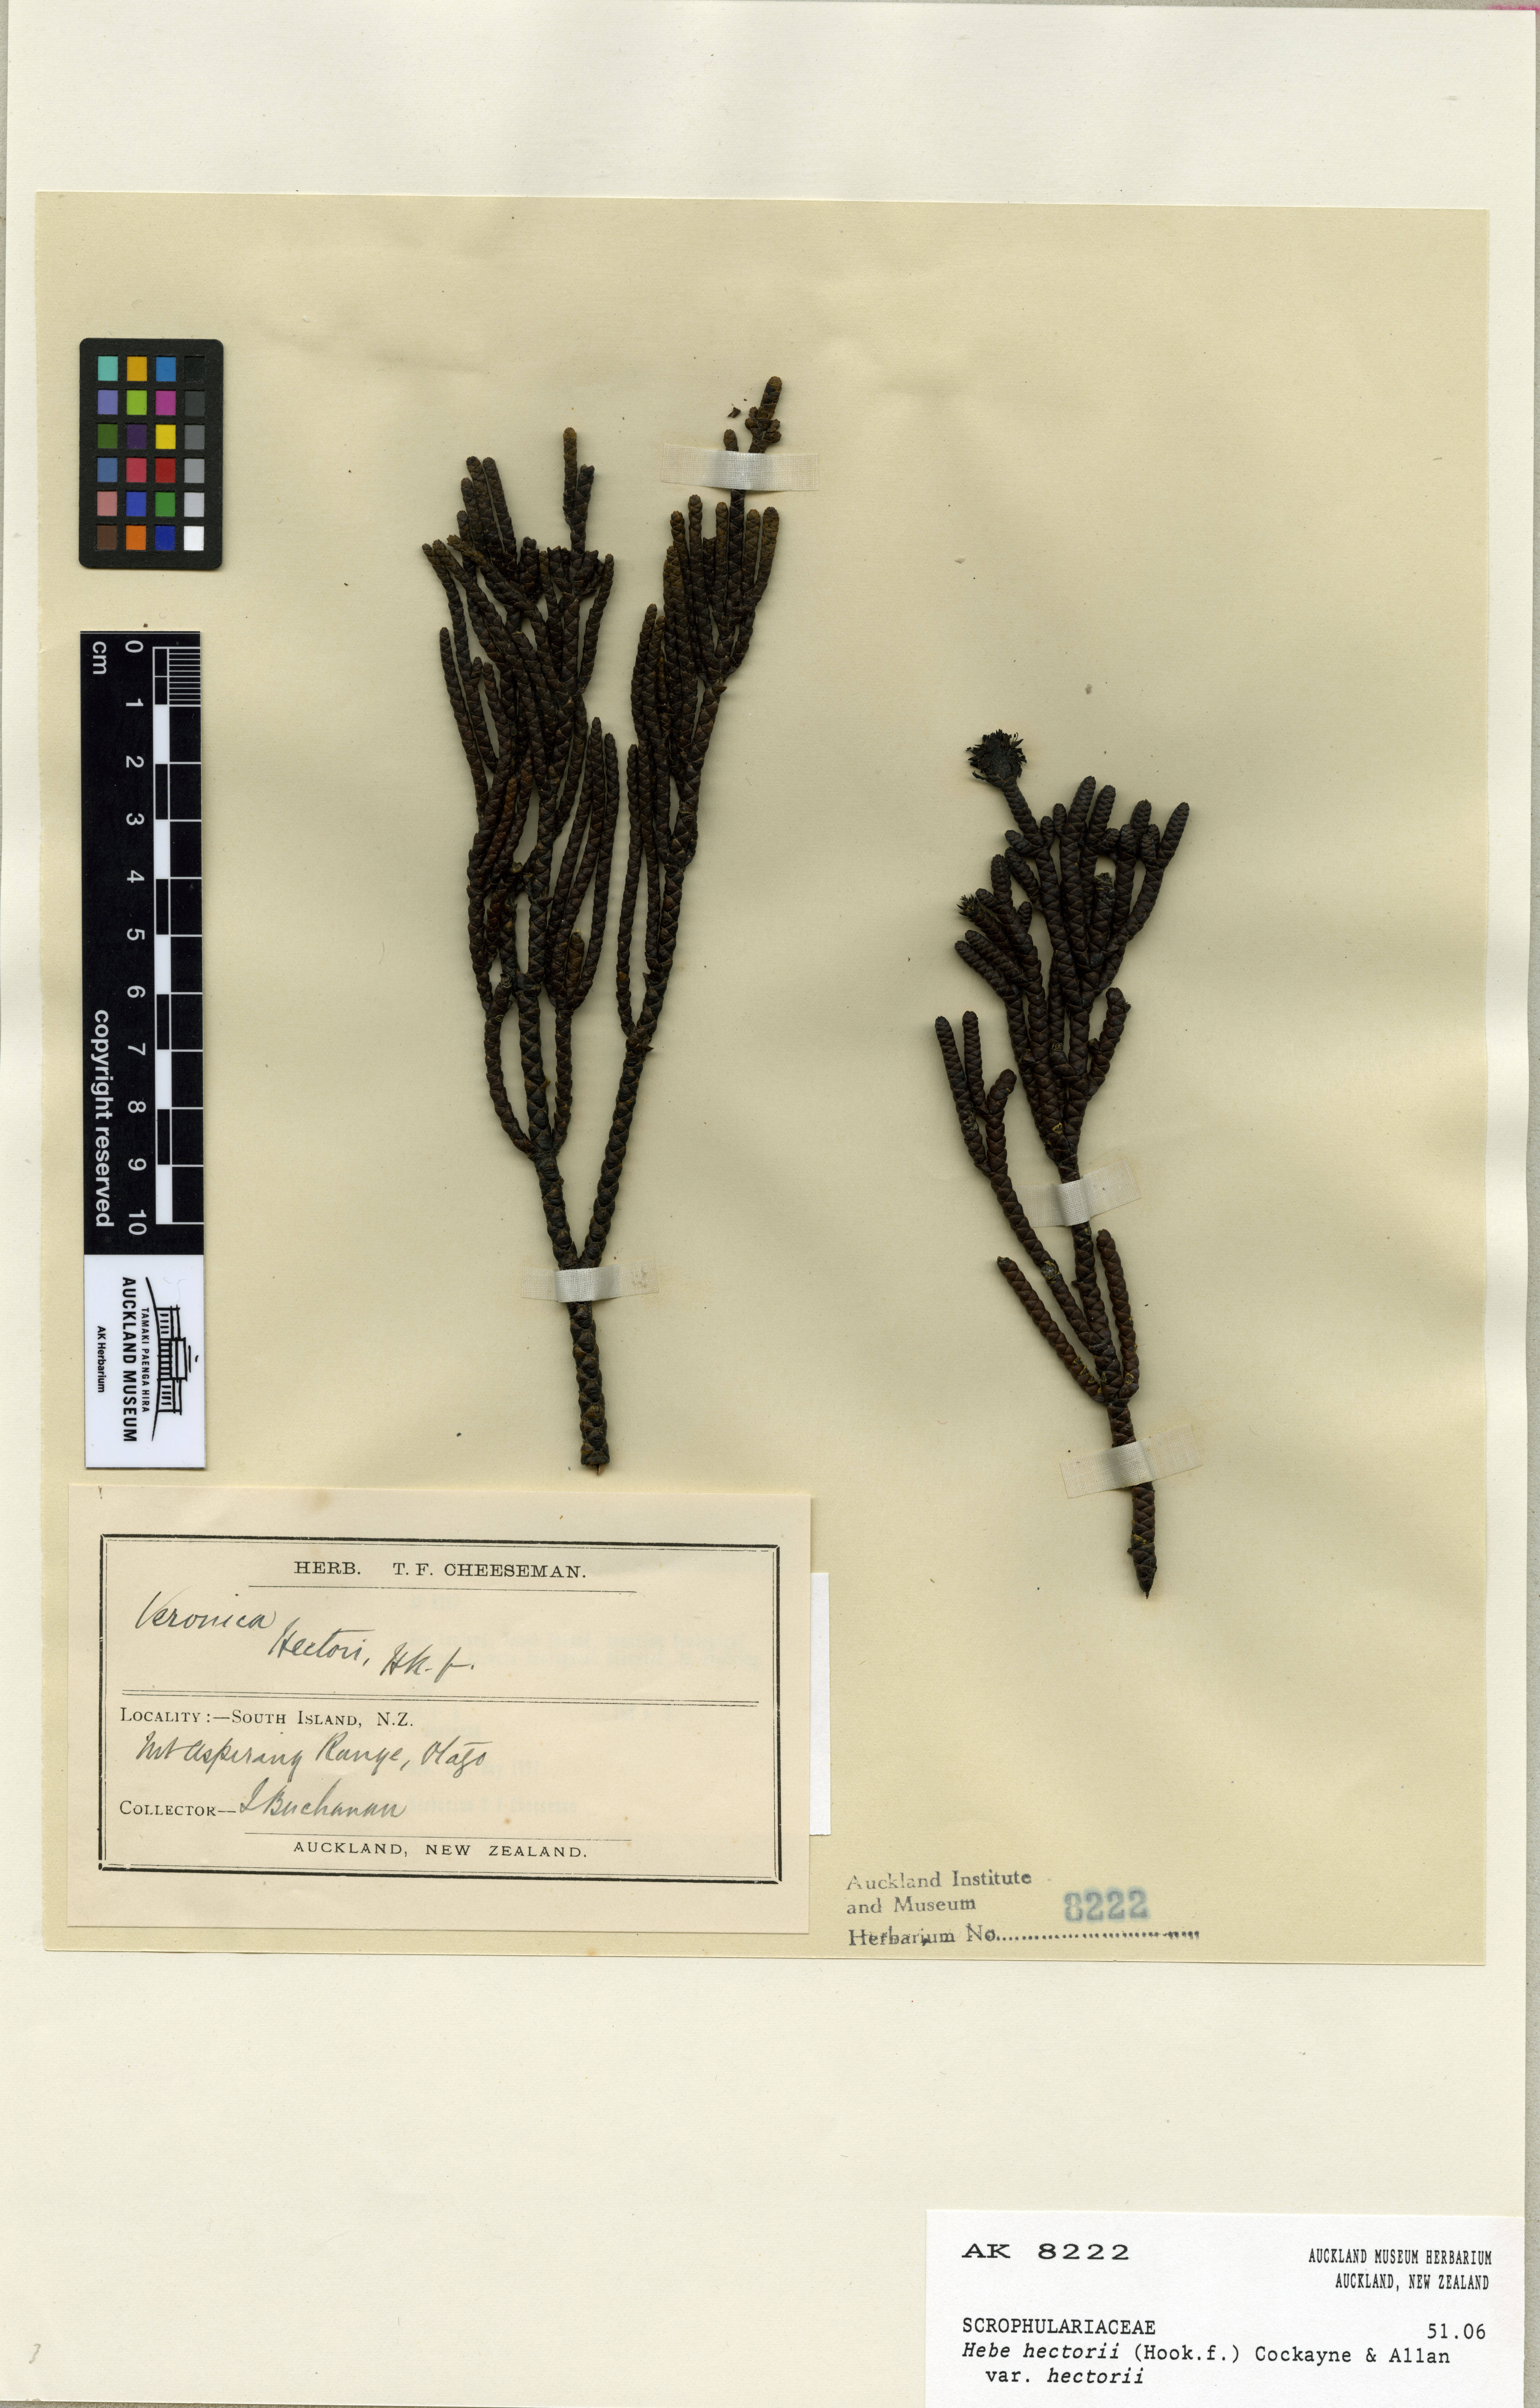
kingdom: Plantae
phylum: Tracheophyta
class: Magnoliopsida
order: Lamiales
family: Plantaginaceae
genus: Veronica
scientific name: Veronica hectorii
